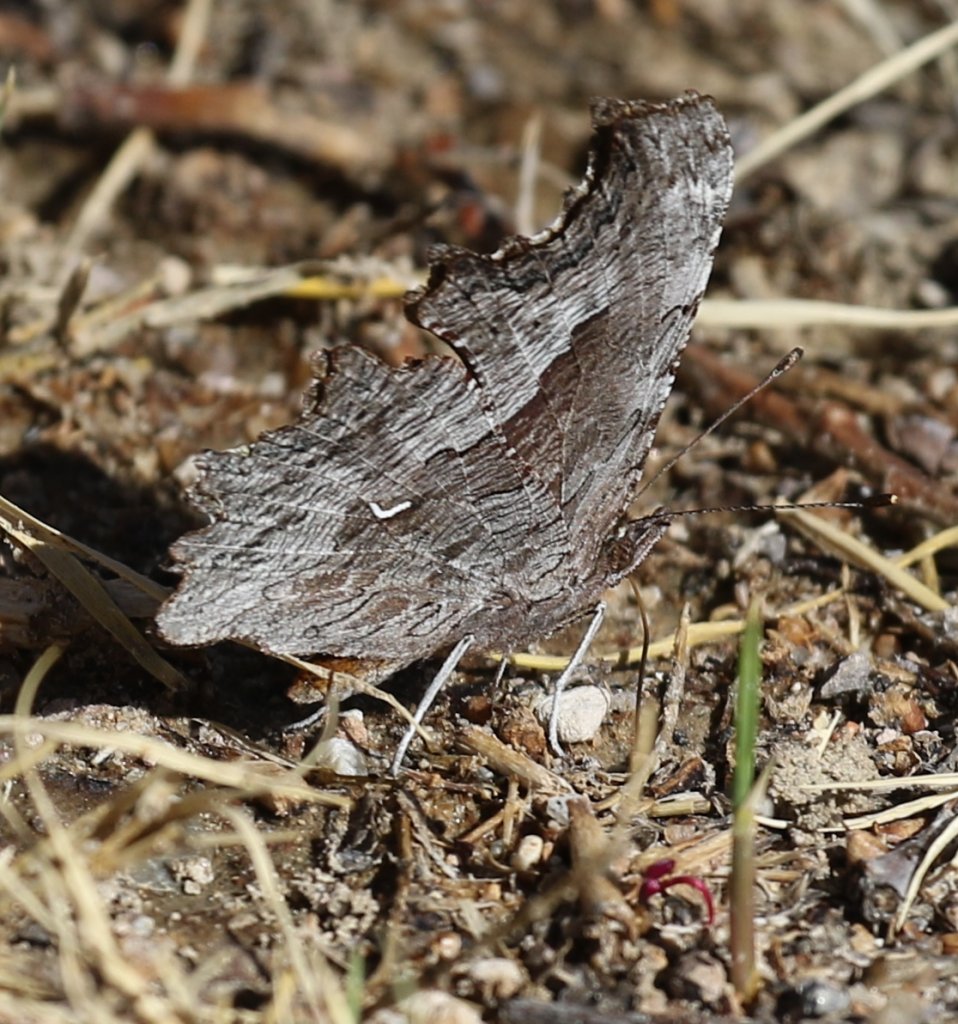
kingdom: Animalia
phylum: Arthropoda
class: Insecta
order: Lepidoptera
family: Nymphalidae
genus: Polygonia
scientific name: Polygonia gracilis
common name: Hoary Comma
